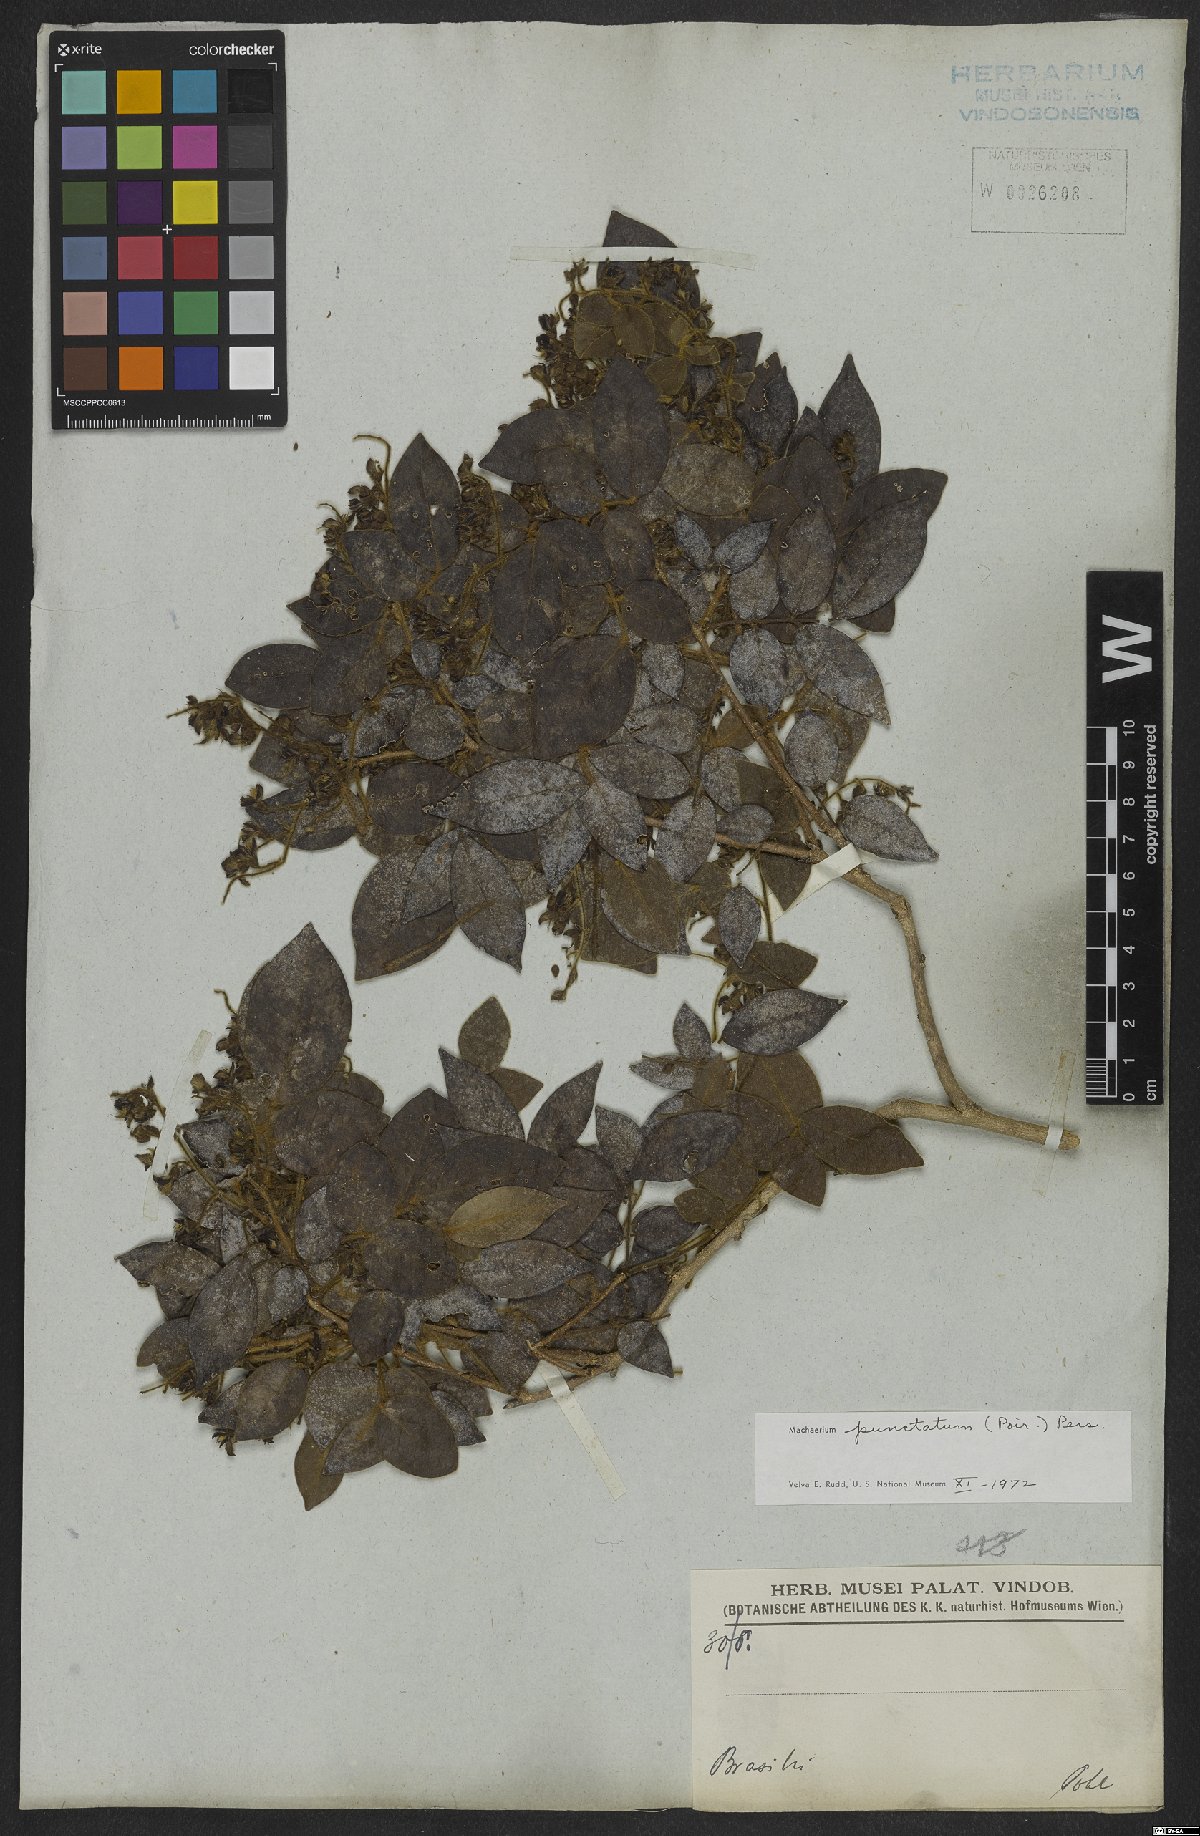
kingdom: Plantae
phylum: Tracheophyta
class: Magnoliopsida
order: Fabales
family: Fabaceae
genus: Machaerium
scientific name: Machaerium punctatum
